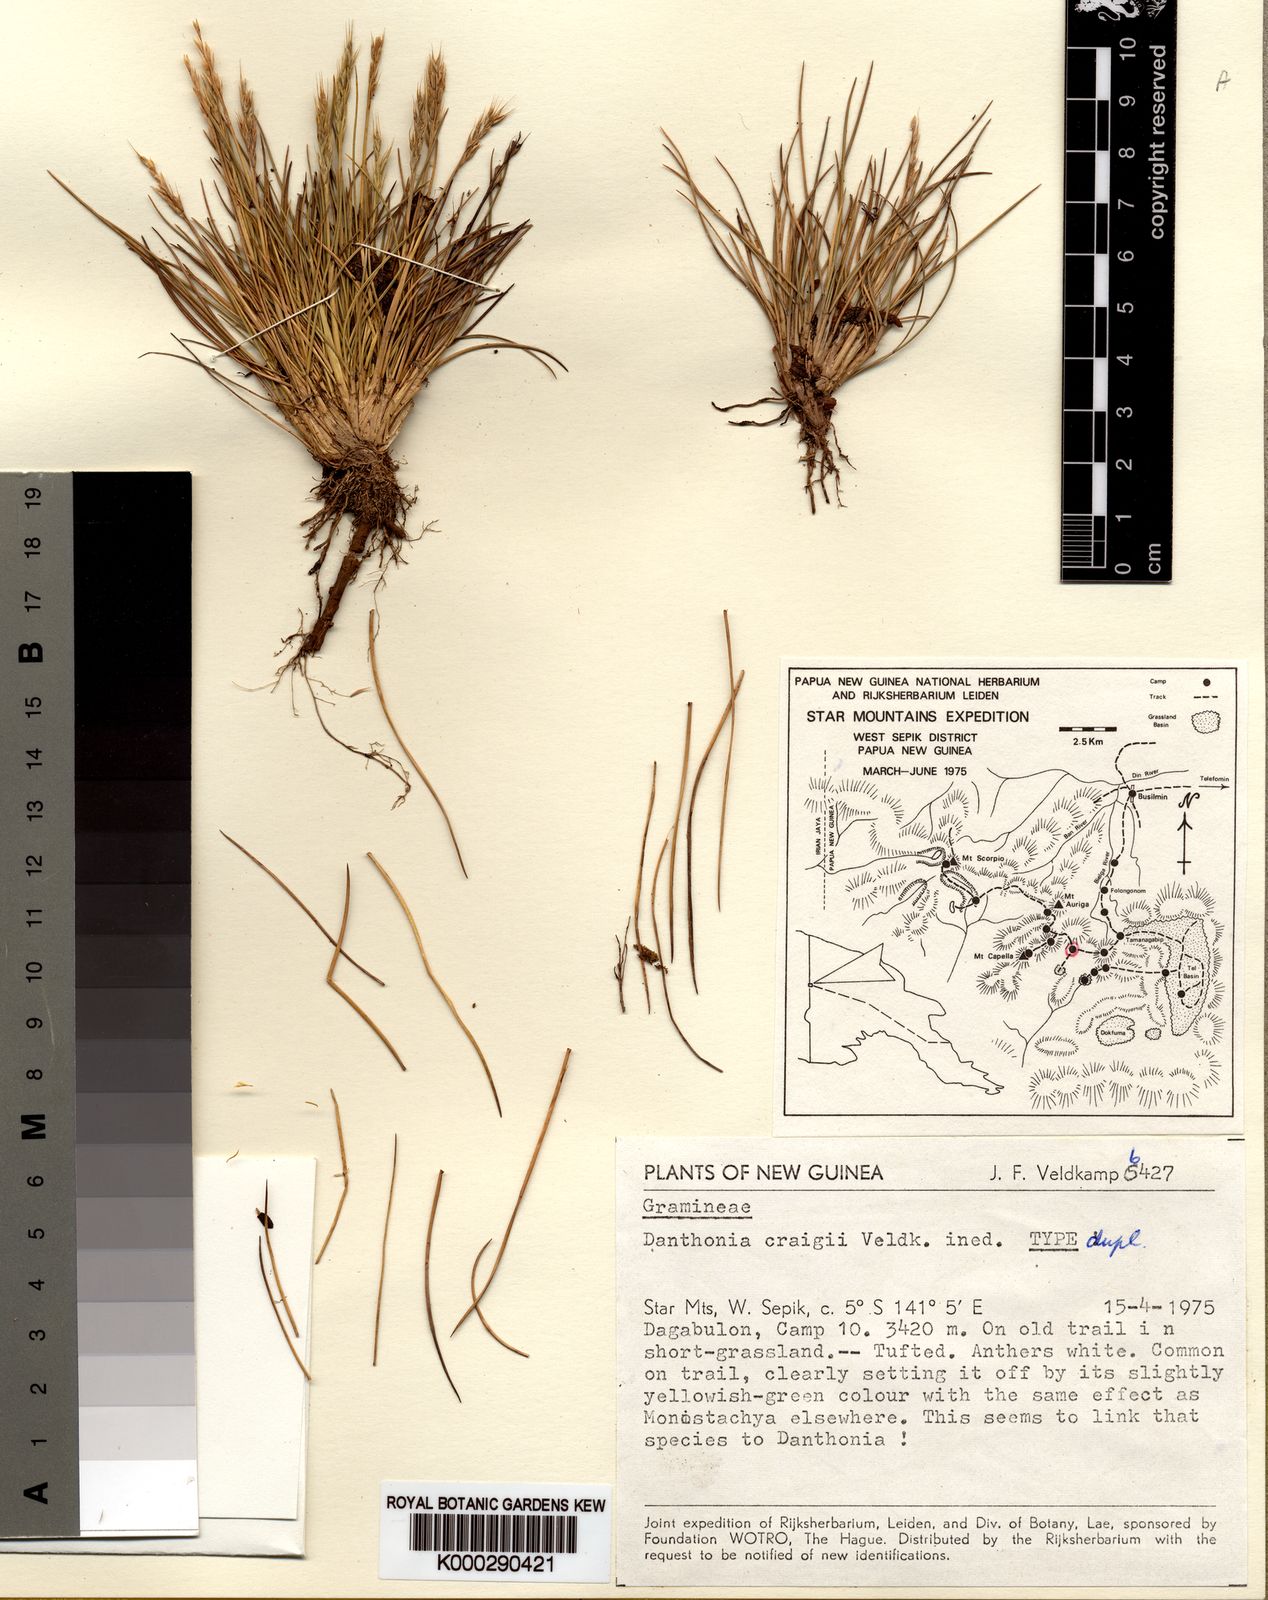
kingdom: Plantae
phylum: Tracheophyta
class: Liliopsida
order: Poales
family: Poaceae
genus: Rytidosperma
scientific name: Rytidosperma craigii
